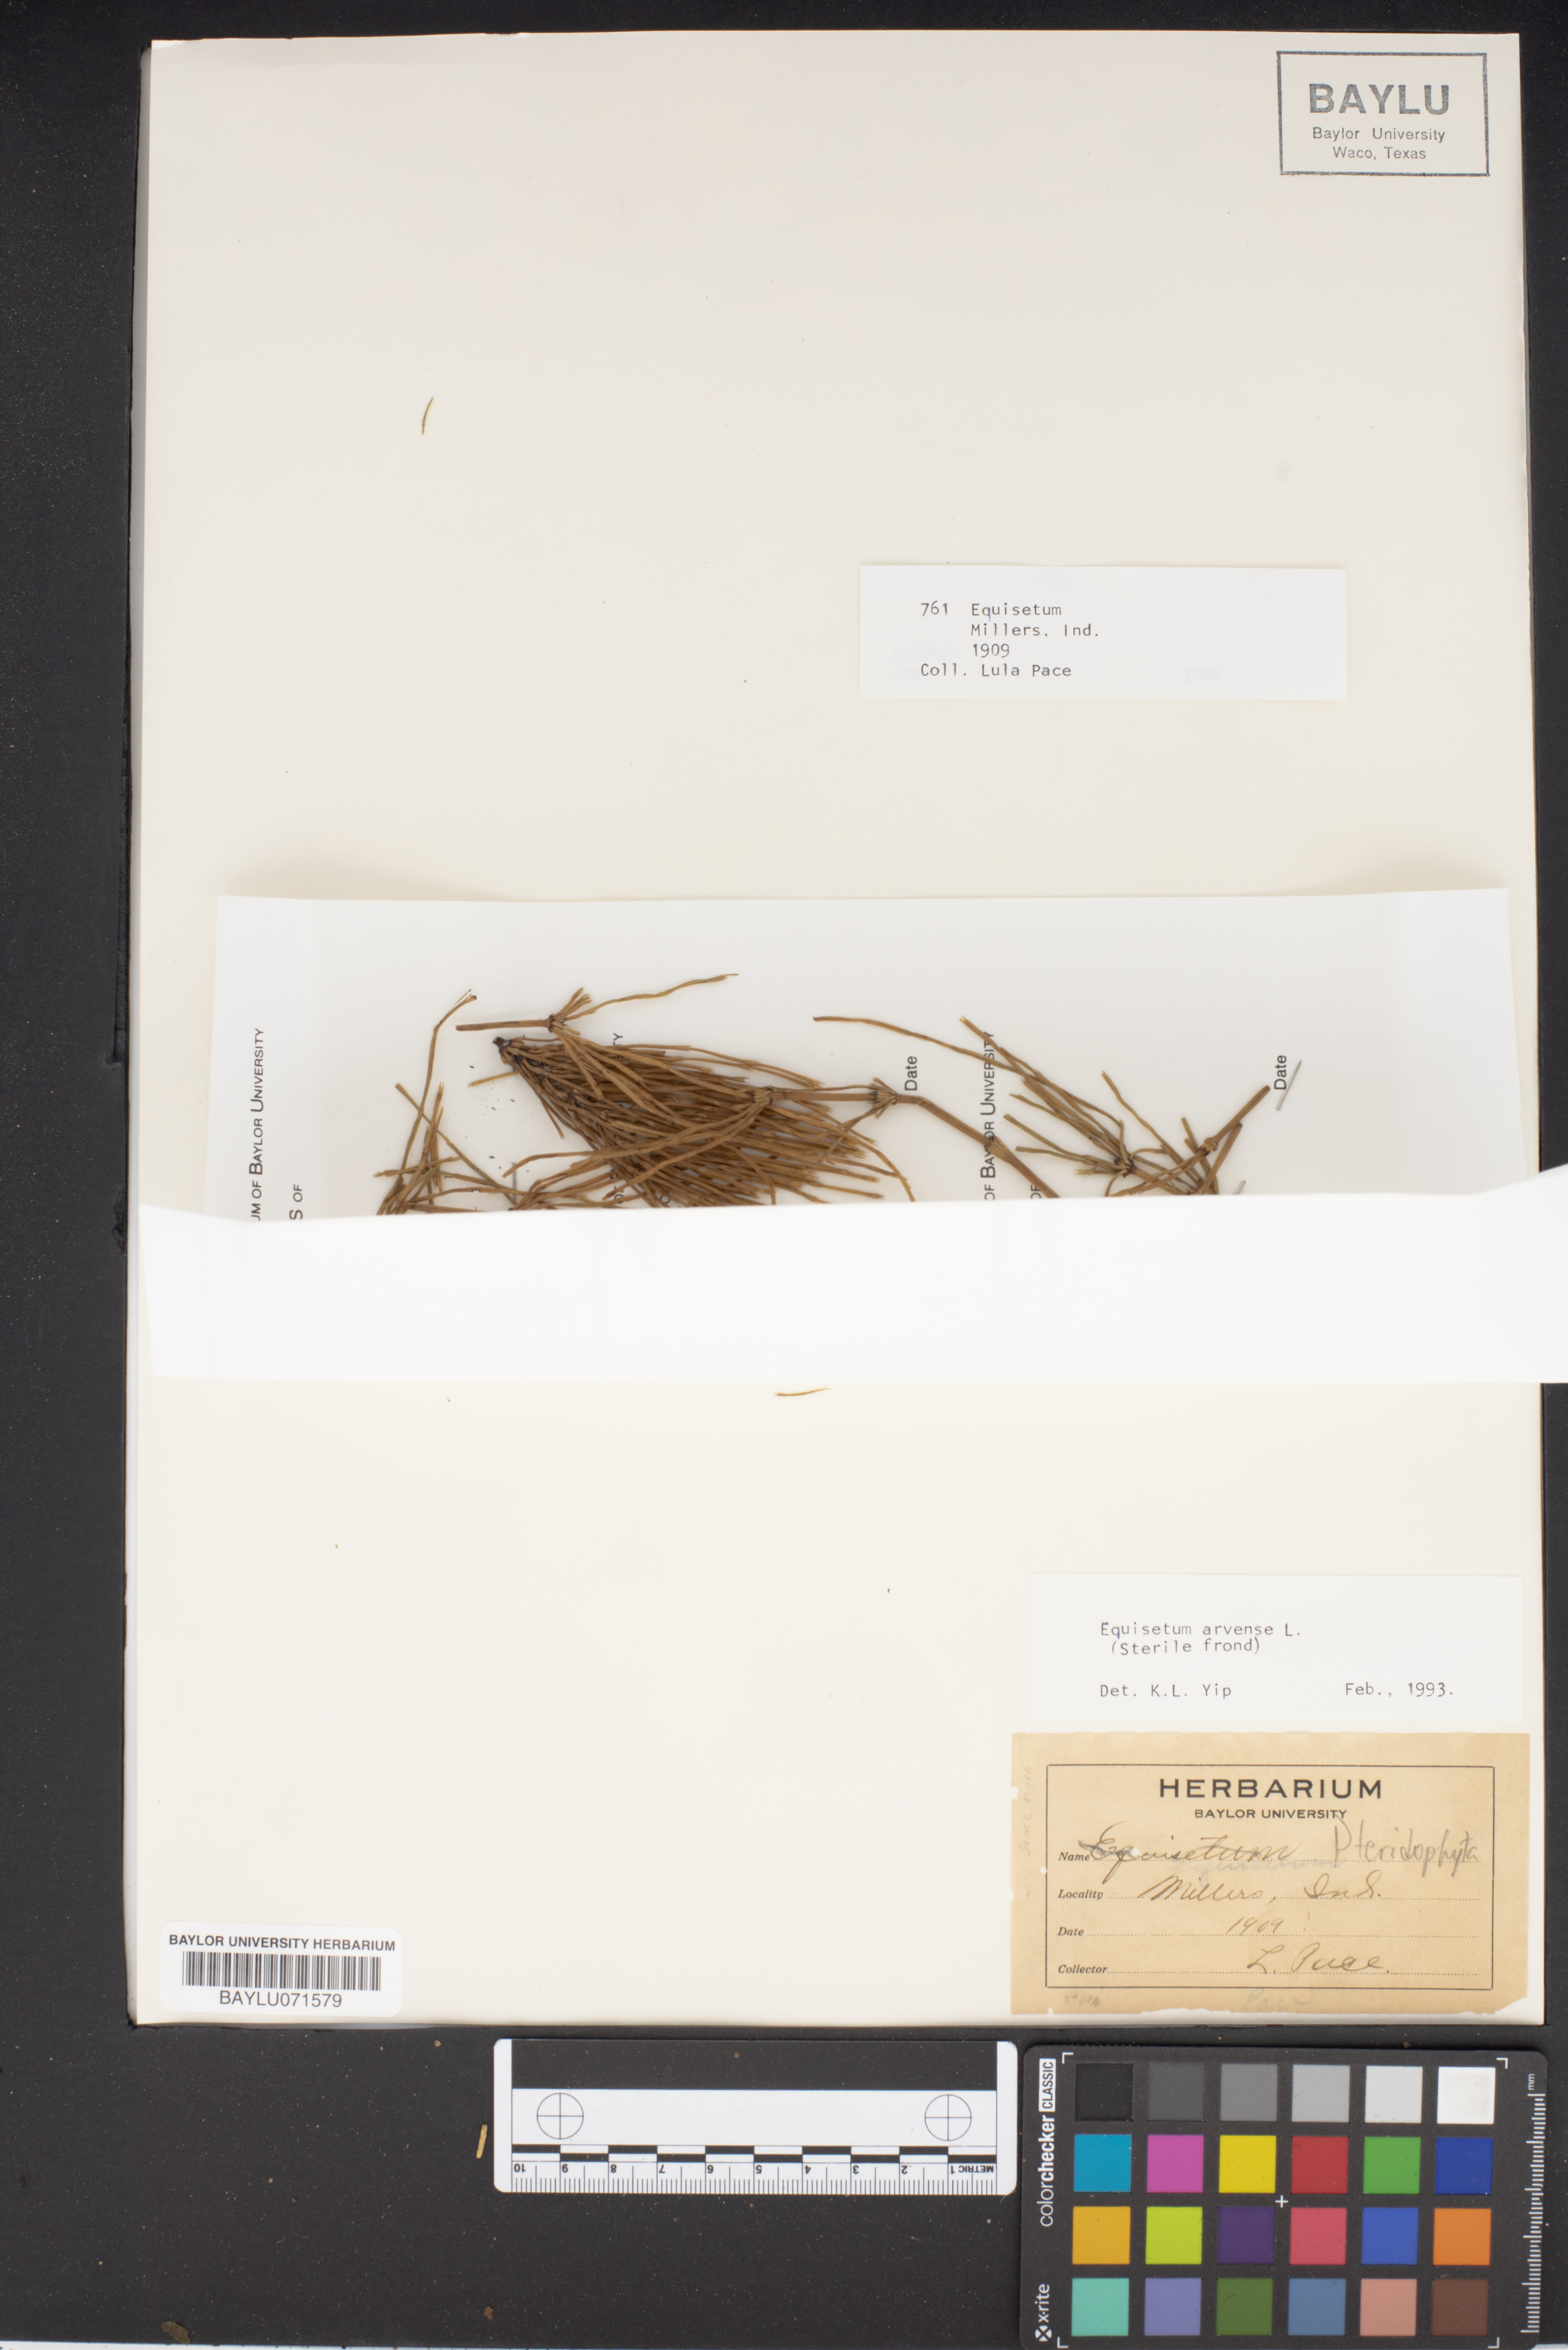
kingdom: Plantae
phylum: Tracheophyta
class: Polypodiopsida
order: Equisetales
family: Equisetaceae
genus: Equisetum
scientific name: Equisetum arvense
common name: Field horsetail
